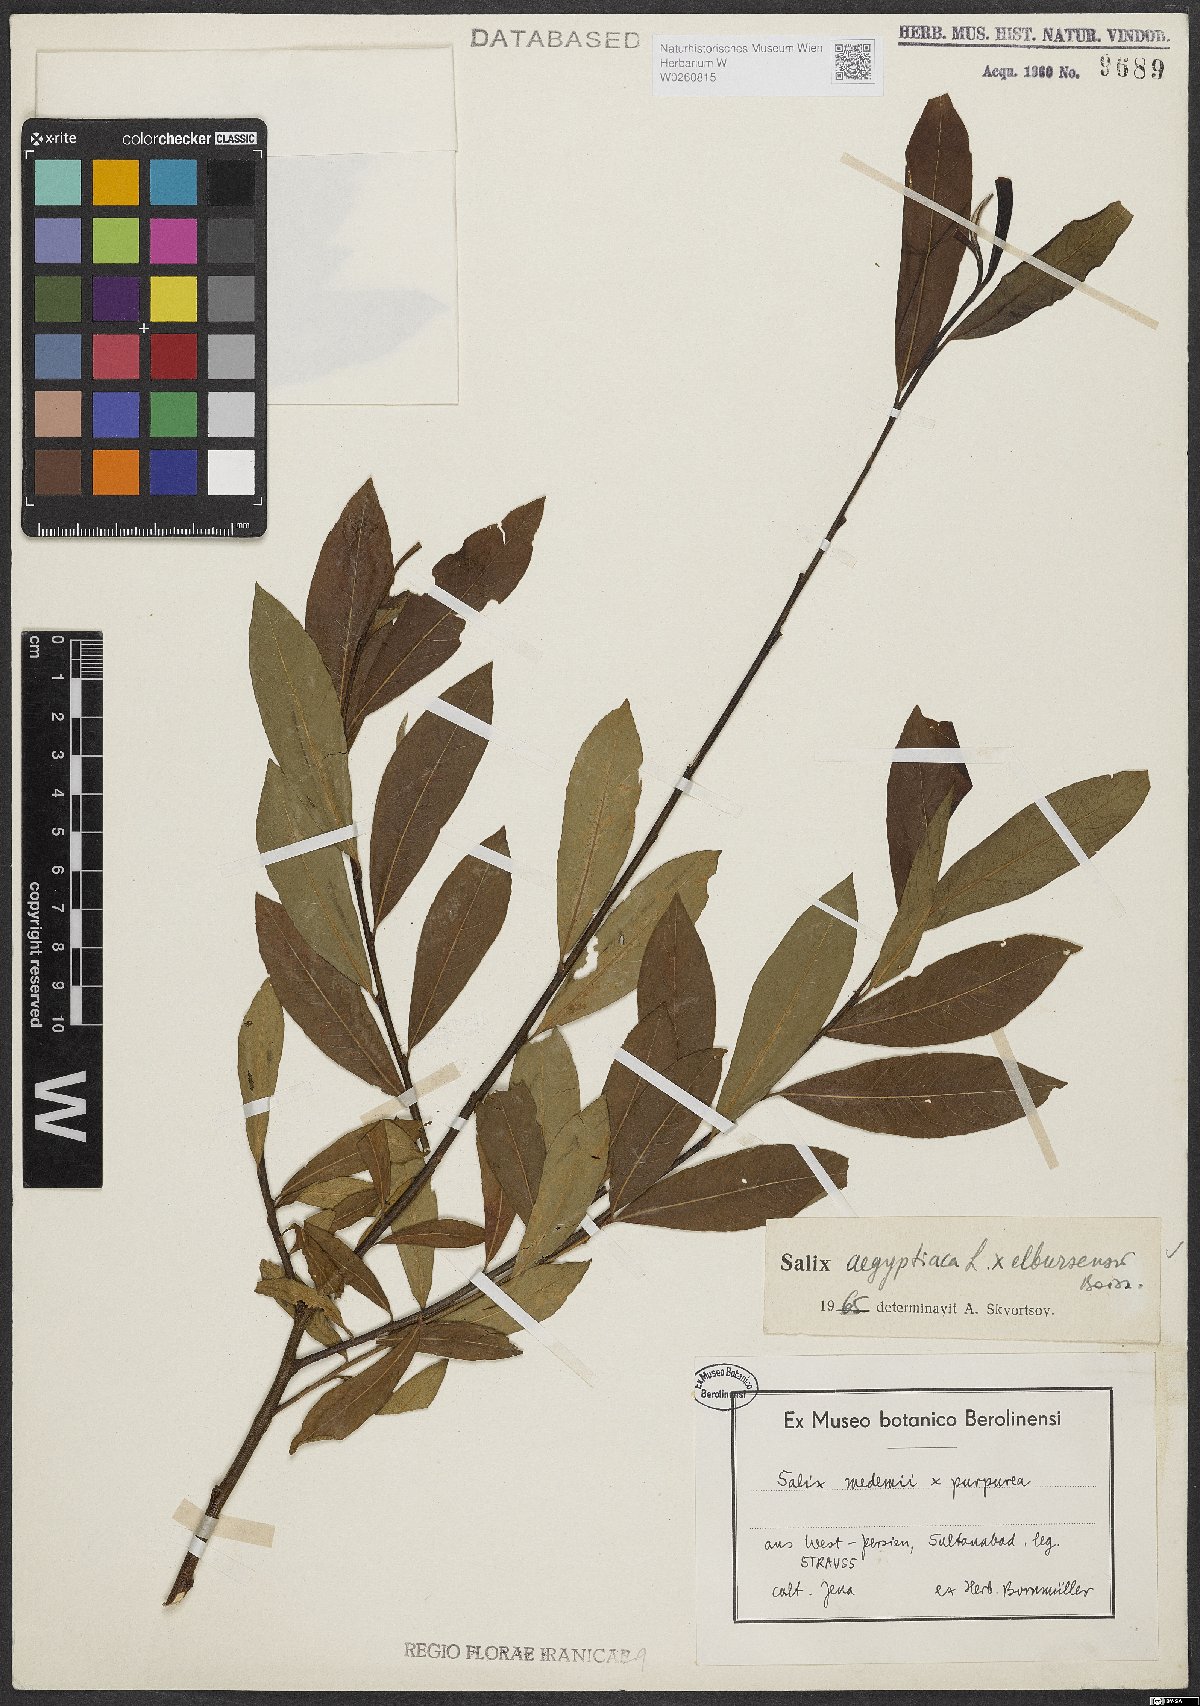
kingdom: Plantae
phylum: Tracheophyta
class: Magnoliopsida
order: Malpighiales
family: Salicaceae
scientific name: Salicaceae
